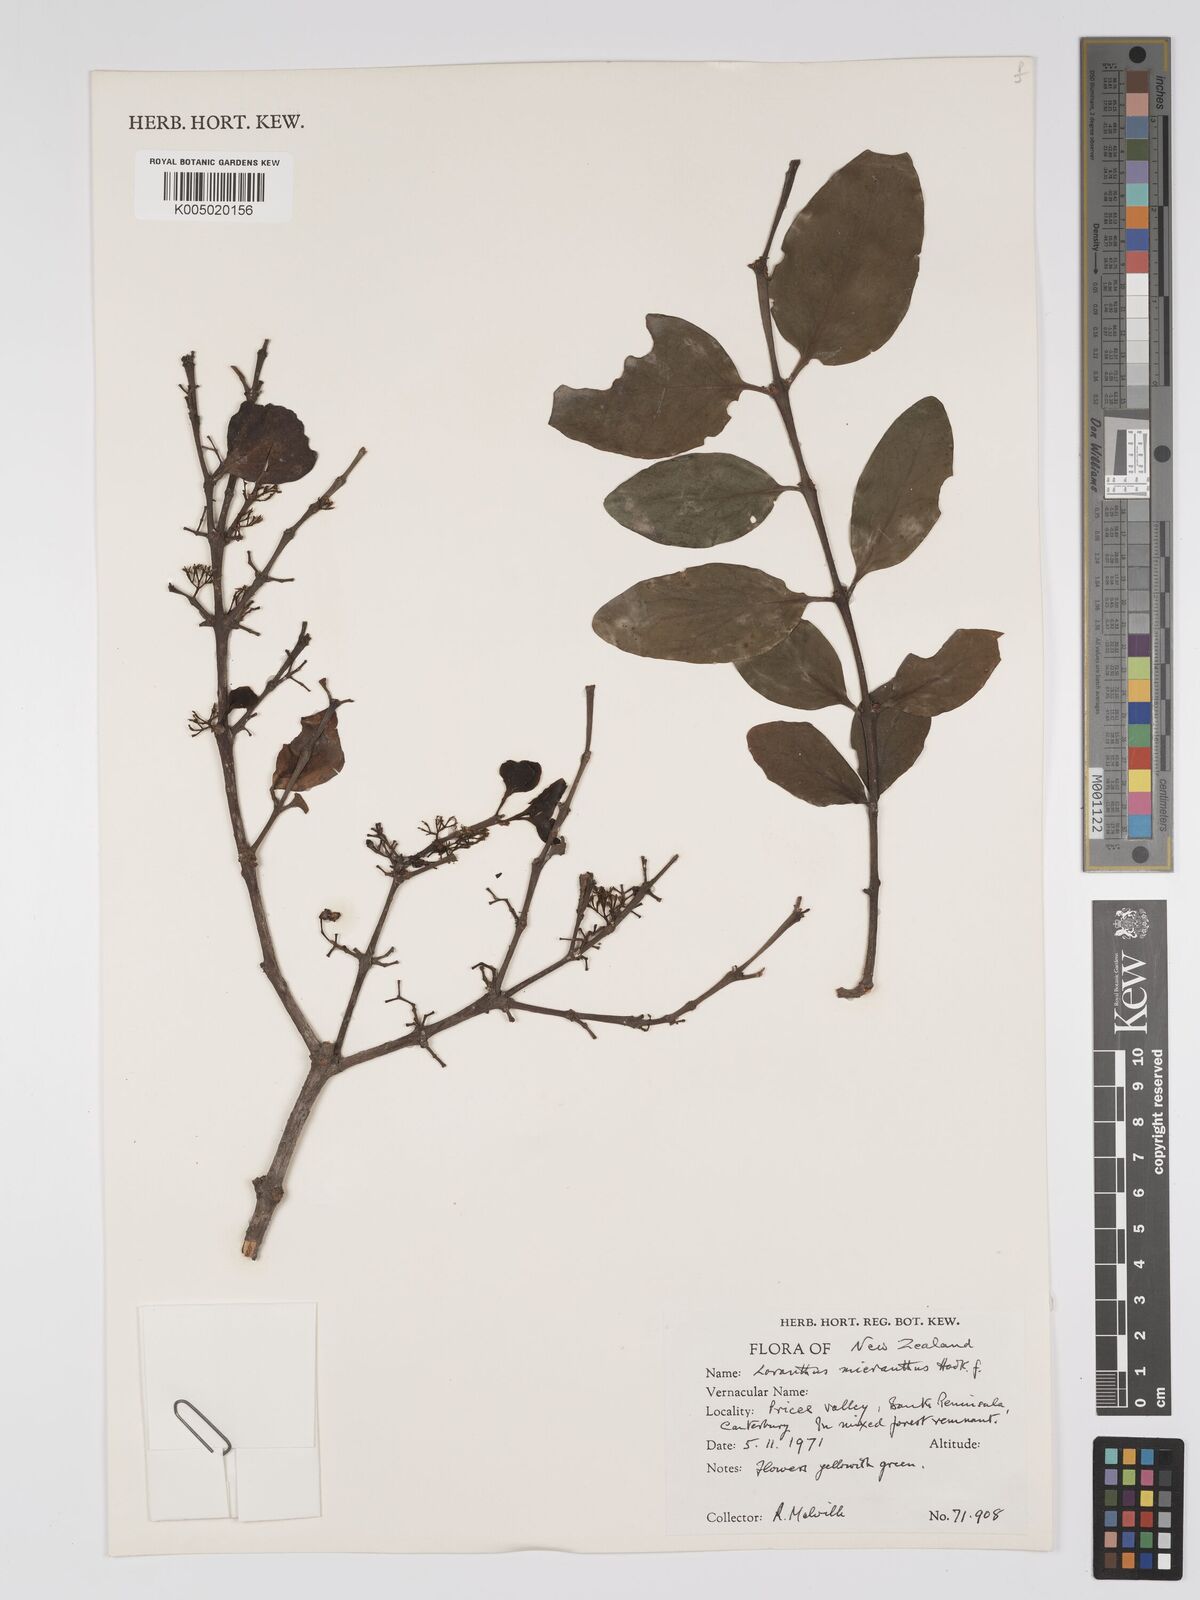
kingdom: Plantae
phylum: Tracheophyta
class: Magnoliopsida
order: Santalales
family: Loranthaceae
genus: Ileostylus
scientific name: Ileostylus micranthus
